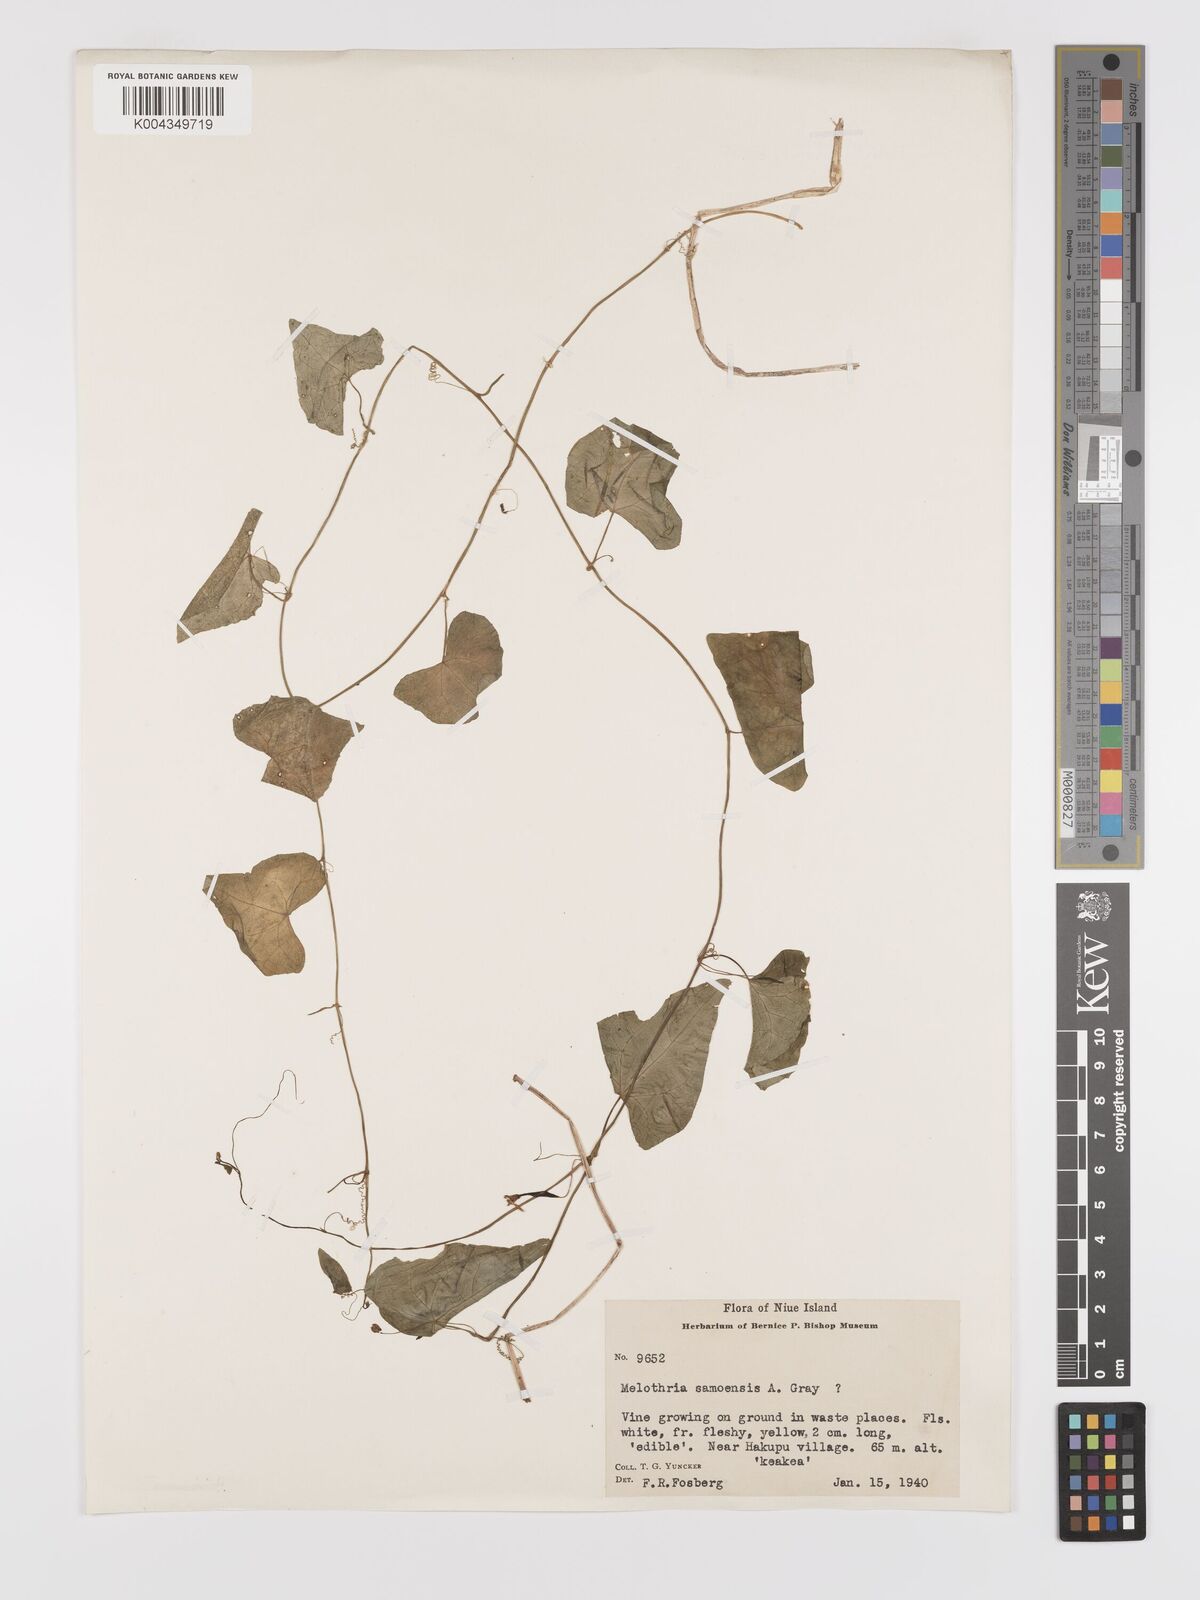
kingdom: Plantae
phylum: Tracheophyta
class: Magnoliopsida
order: Cucurbitales
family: Cucurbitaceae
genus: Zehneria
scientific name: Zehneria mucronata
